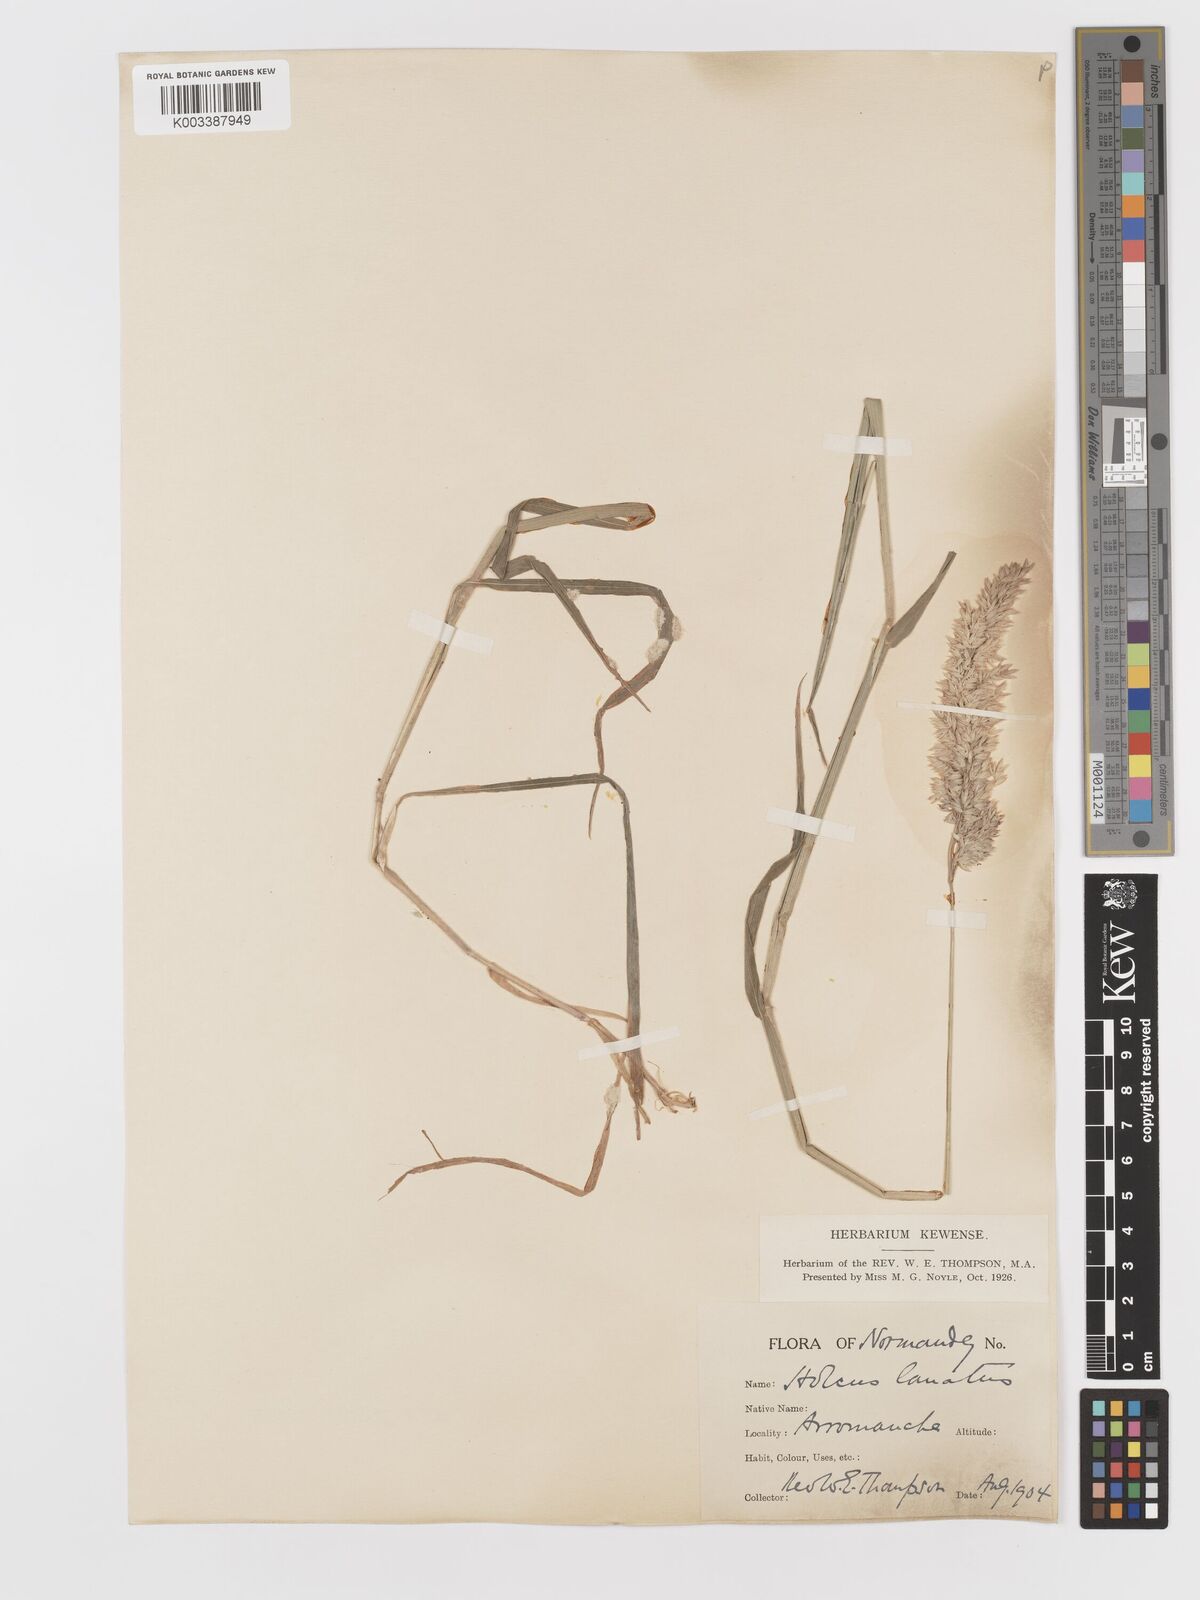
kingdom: Plantae
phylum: Tracheophyta
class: Liliopsida
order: Poales
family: Poaceae
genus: Holcus
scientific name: Holcus lanatus
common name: Yorkshire-fog
